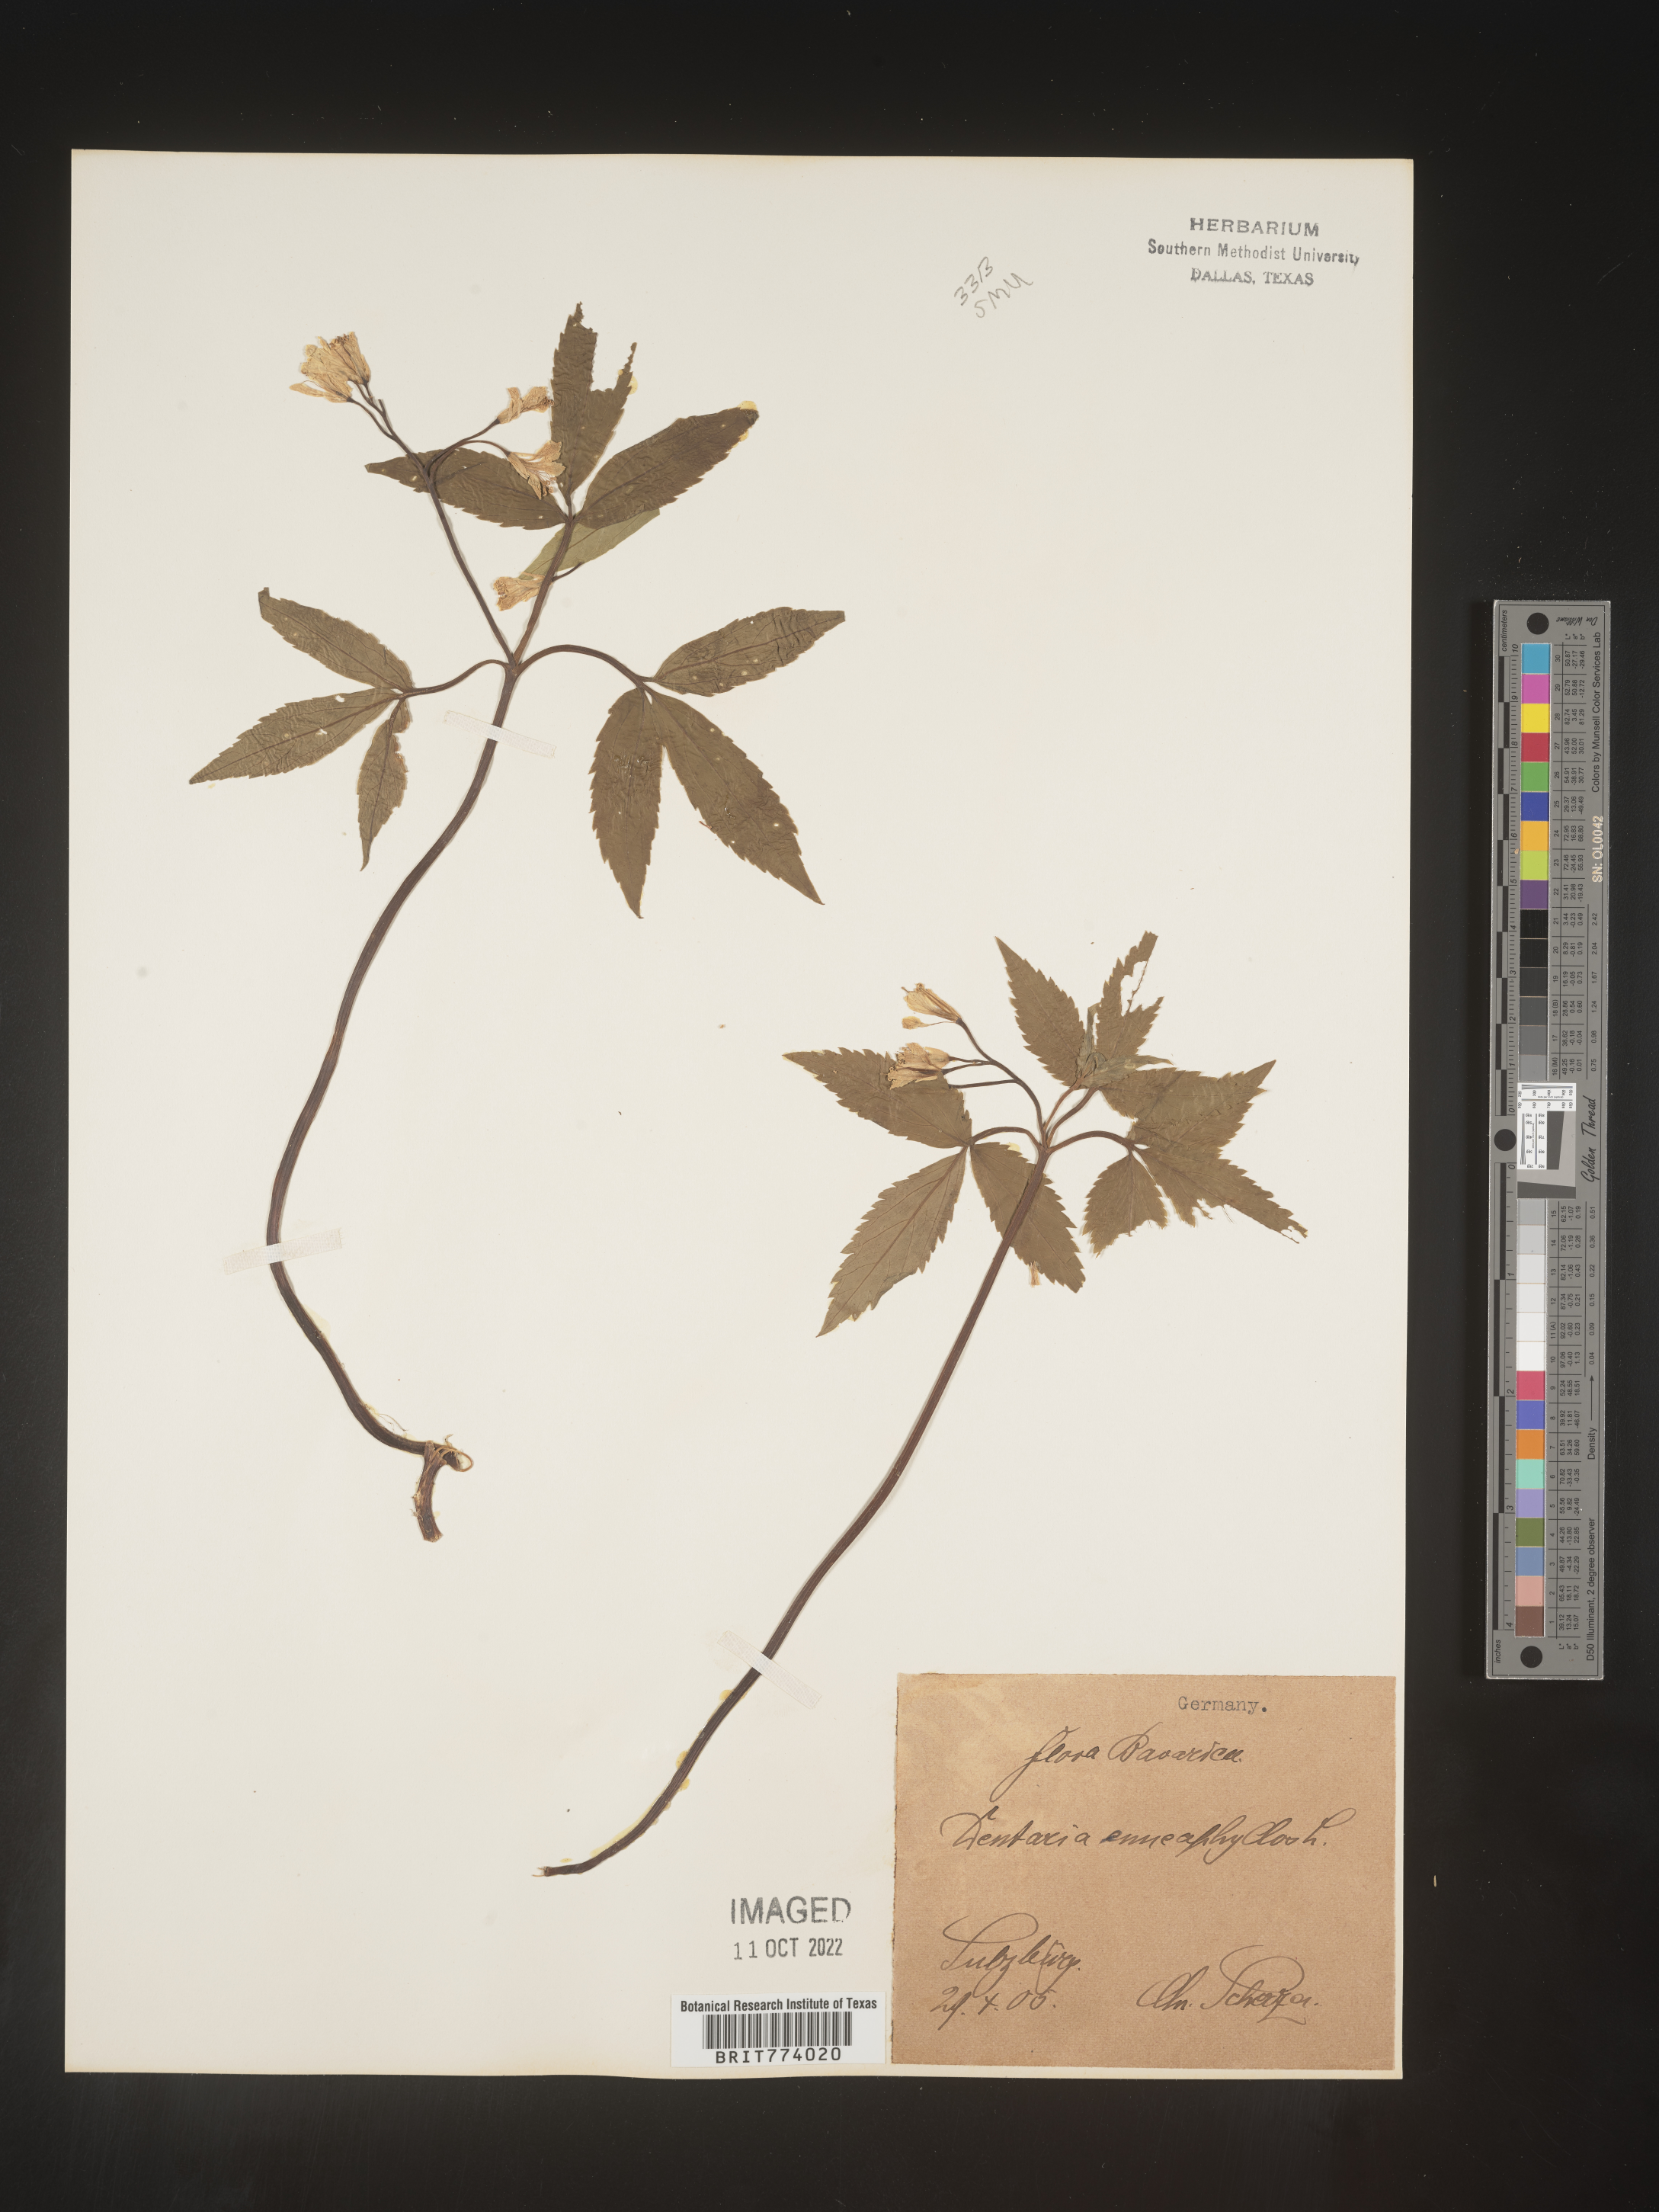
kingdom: Plantae
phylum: Tracheophyta
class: Magnoliopsida
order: Brassicales
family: Brassicaceae
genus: Cardamine
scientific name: Cardamine
